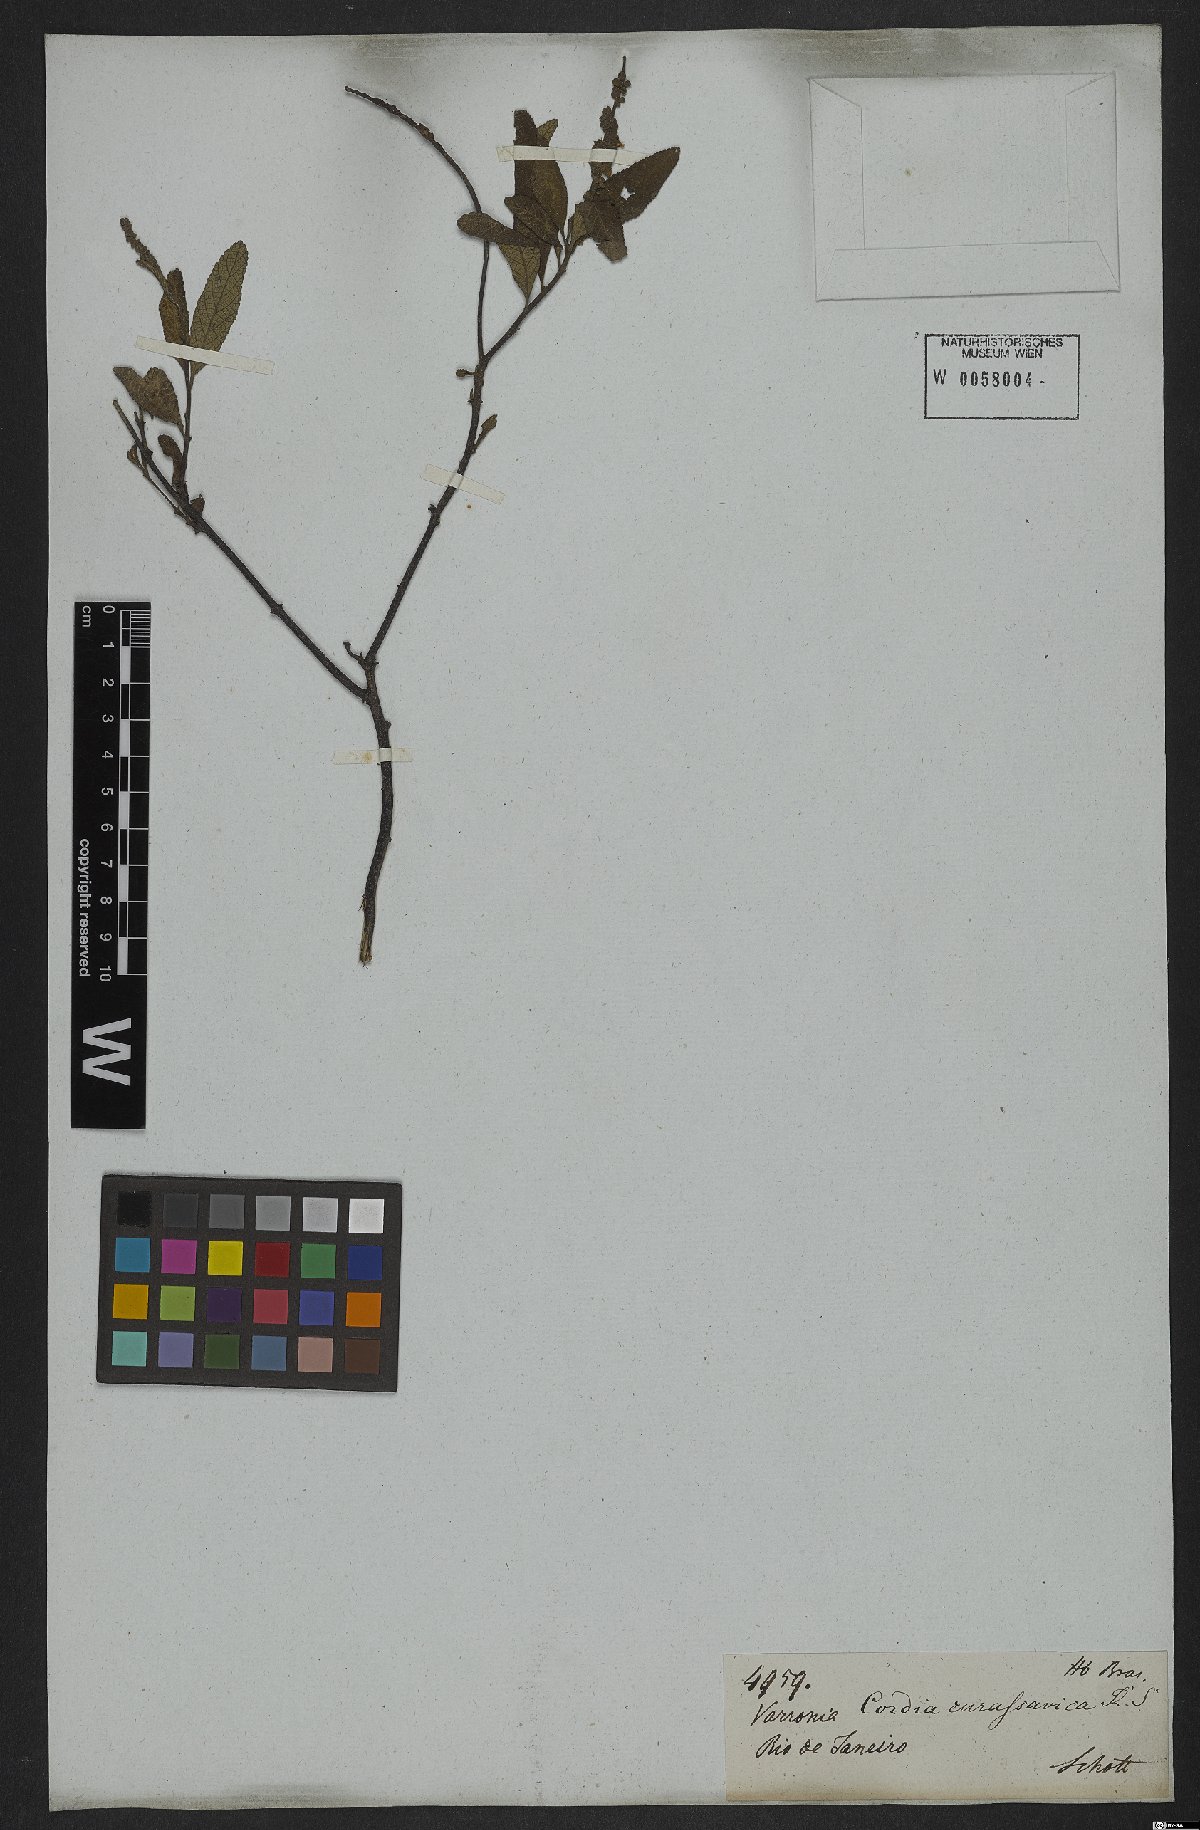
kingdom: Plantae
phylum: Tracheophyta
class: Magnoliopsida
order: Boraginales
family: Cordiaceae
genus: Varronia
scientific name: Varronia curassavica
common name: Black sage
